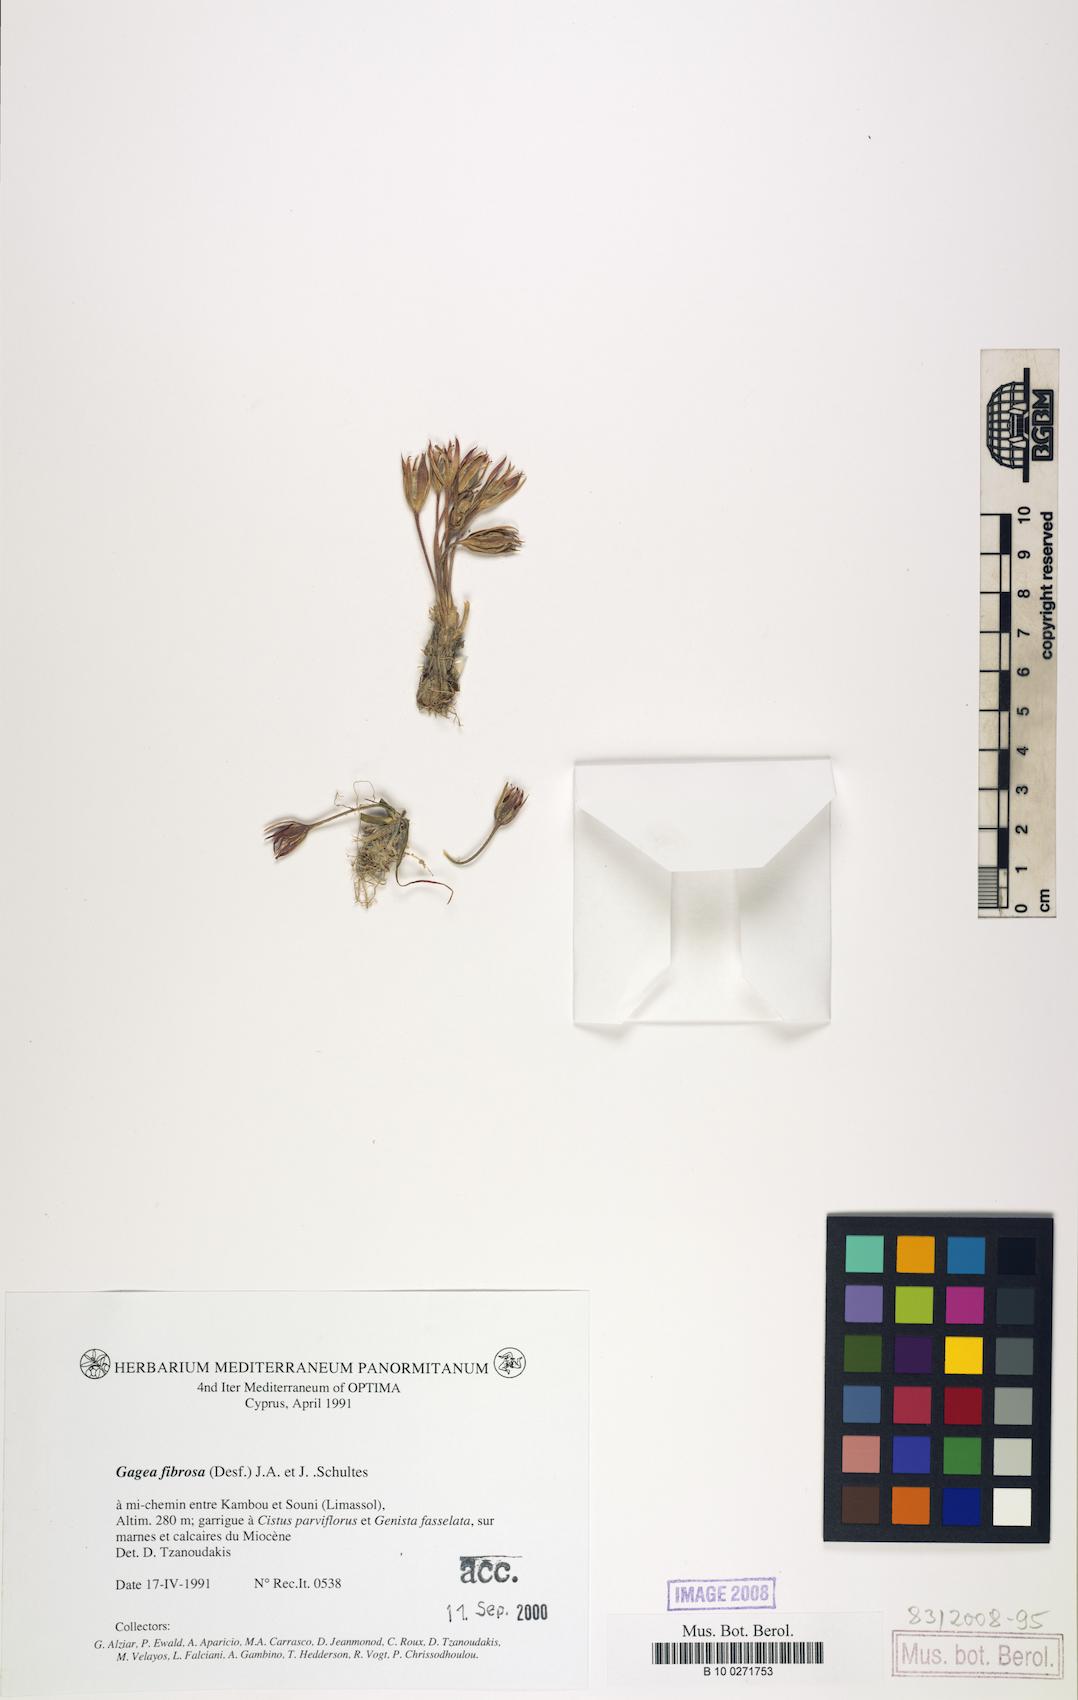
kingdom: Plantae
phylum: Tracheophyta
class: Liliopsida
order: Liliales
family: Liliaceae
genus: Gagea
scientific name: Gagea fibrosa
